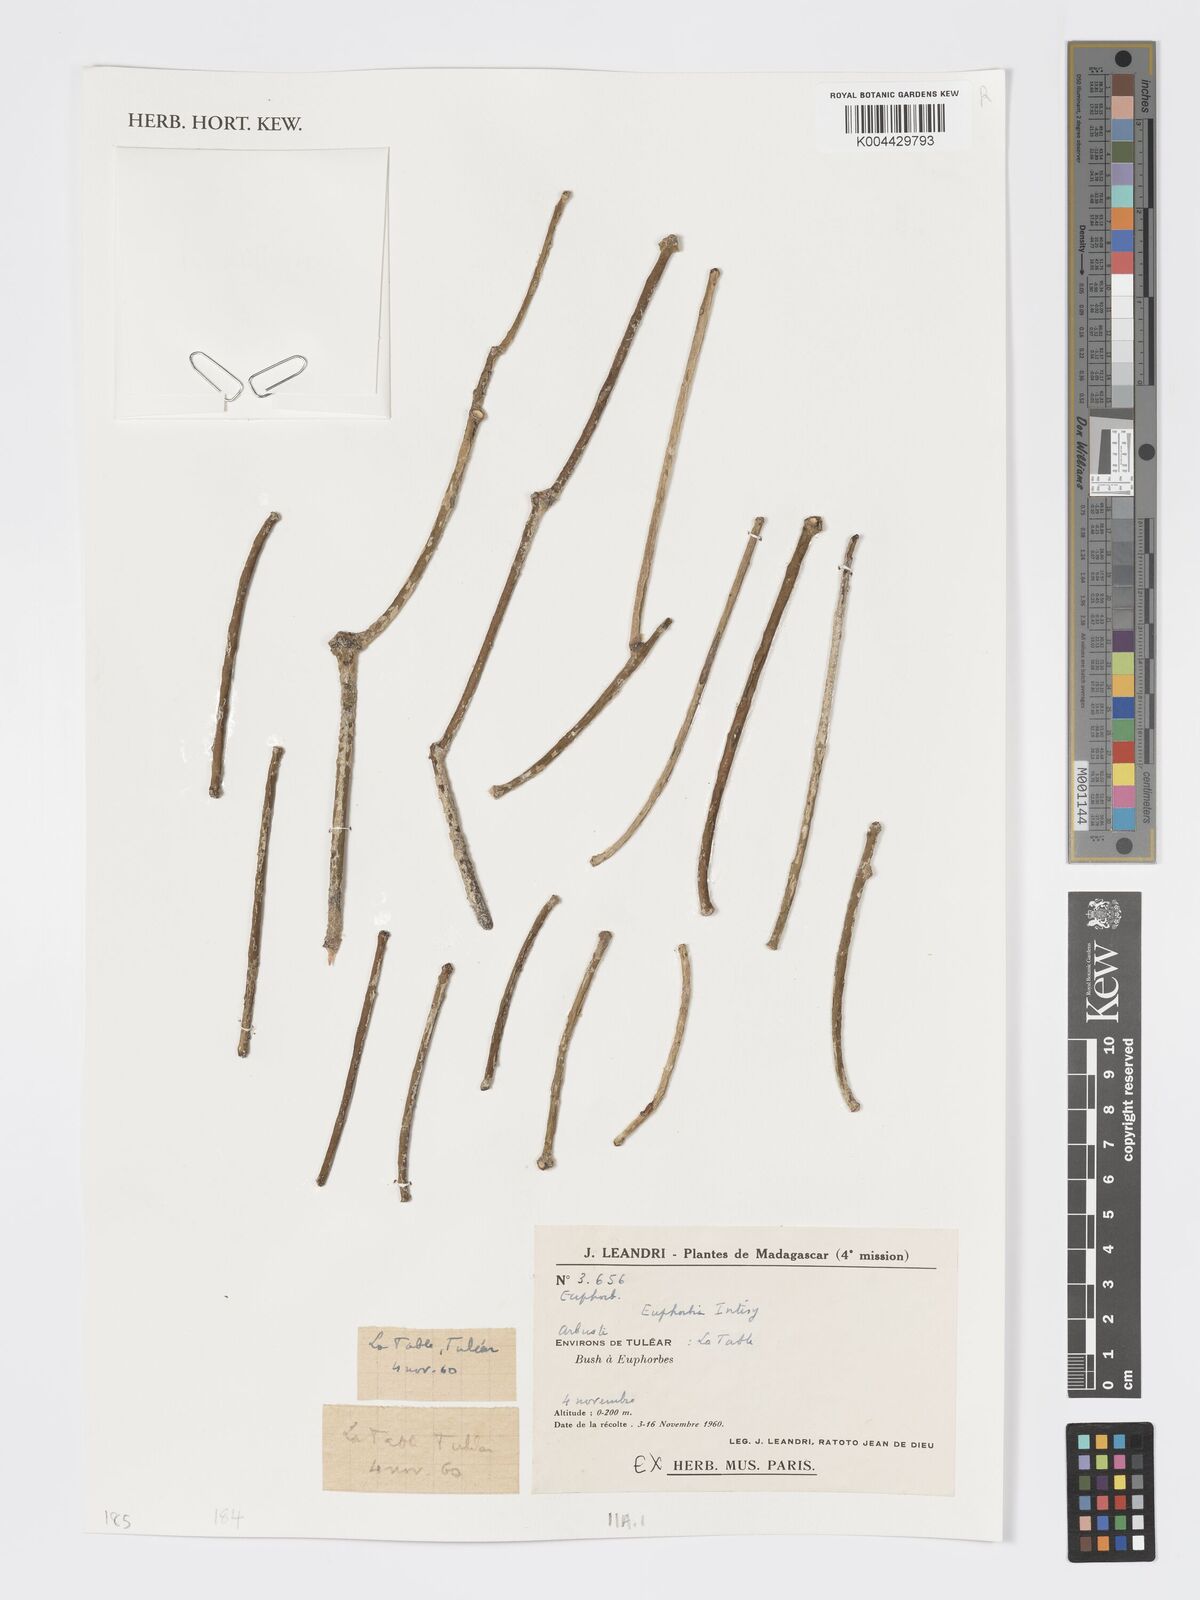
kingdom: Plantae
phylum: Tracheophyta
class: Magnoliopsida
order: Malpighiales
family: Euphorbiaceae
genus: Euphorbia
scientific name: Euphorbia intisy
